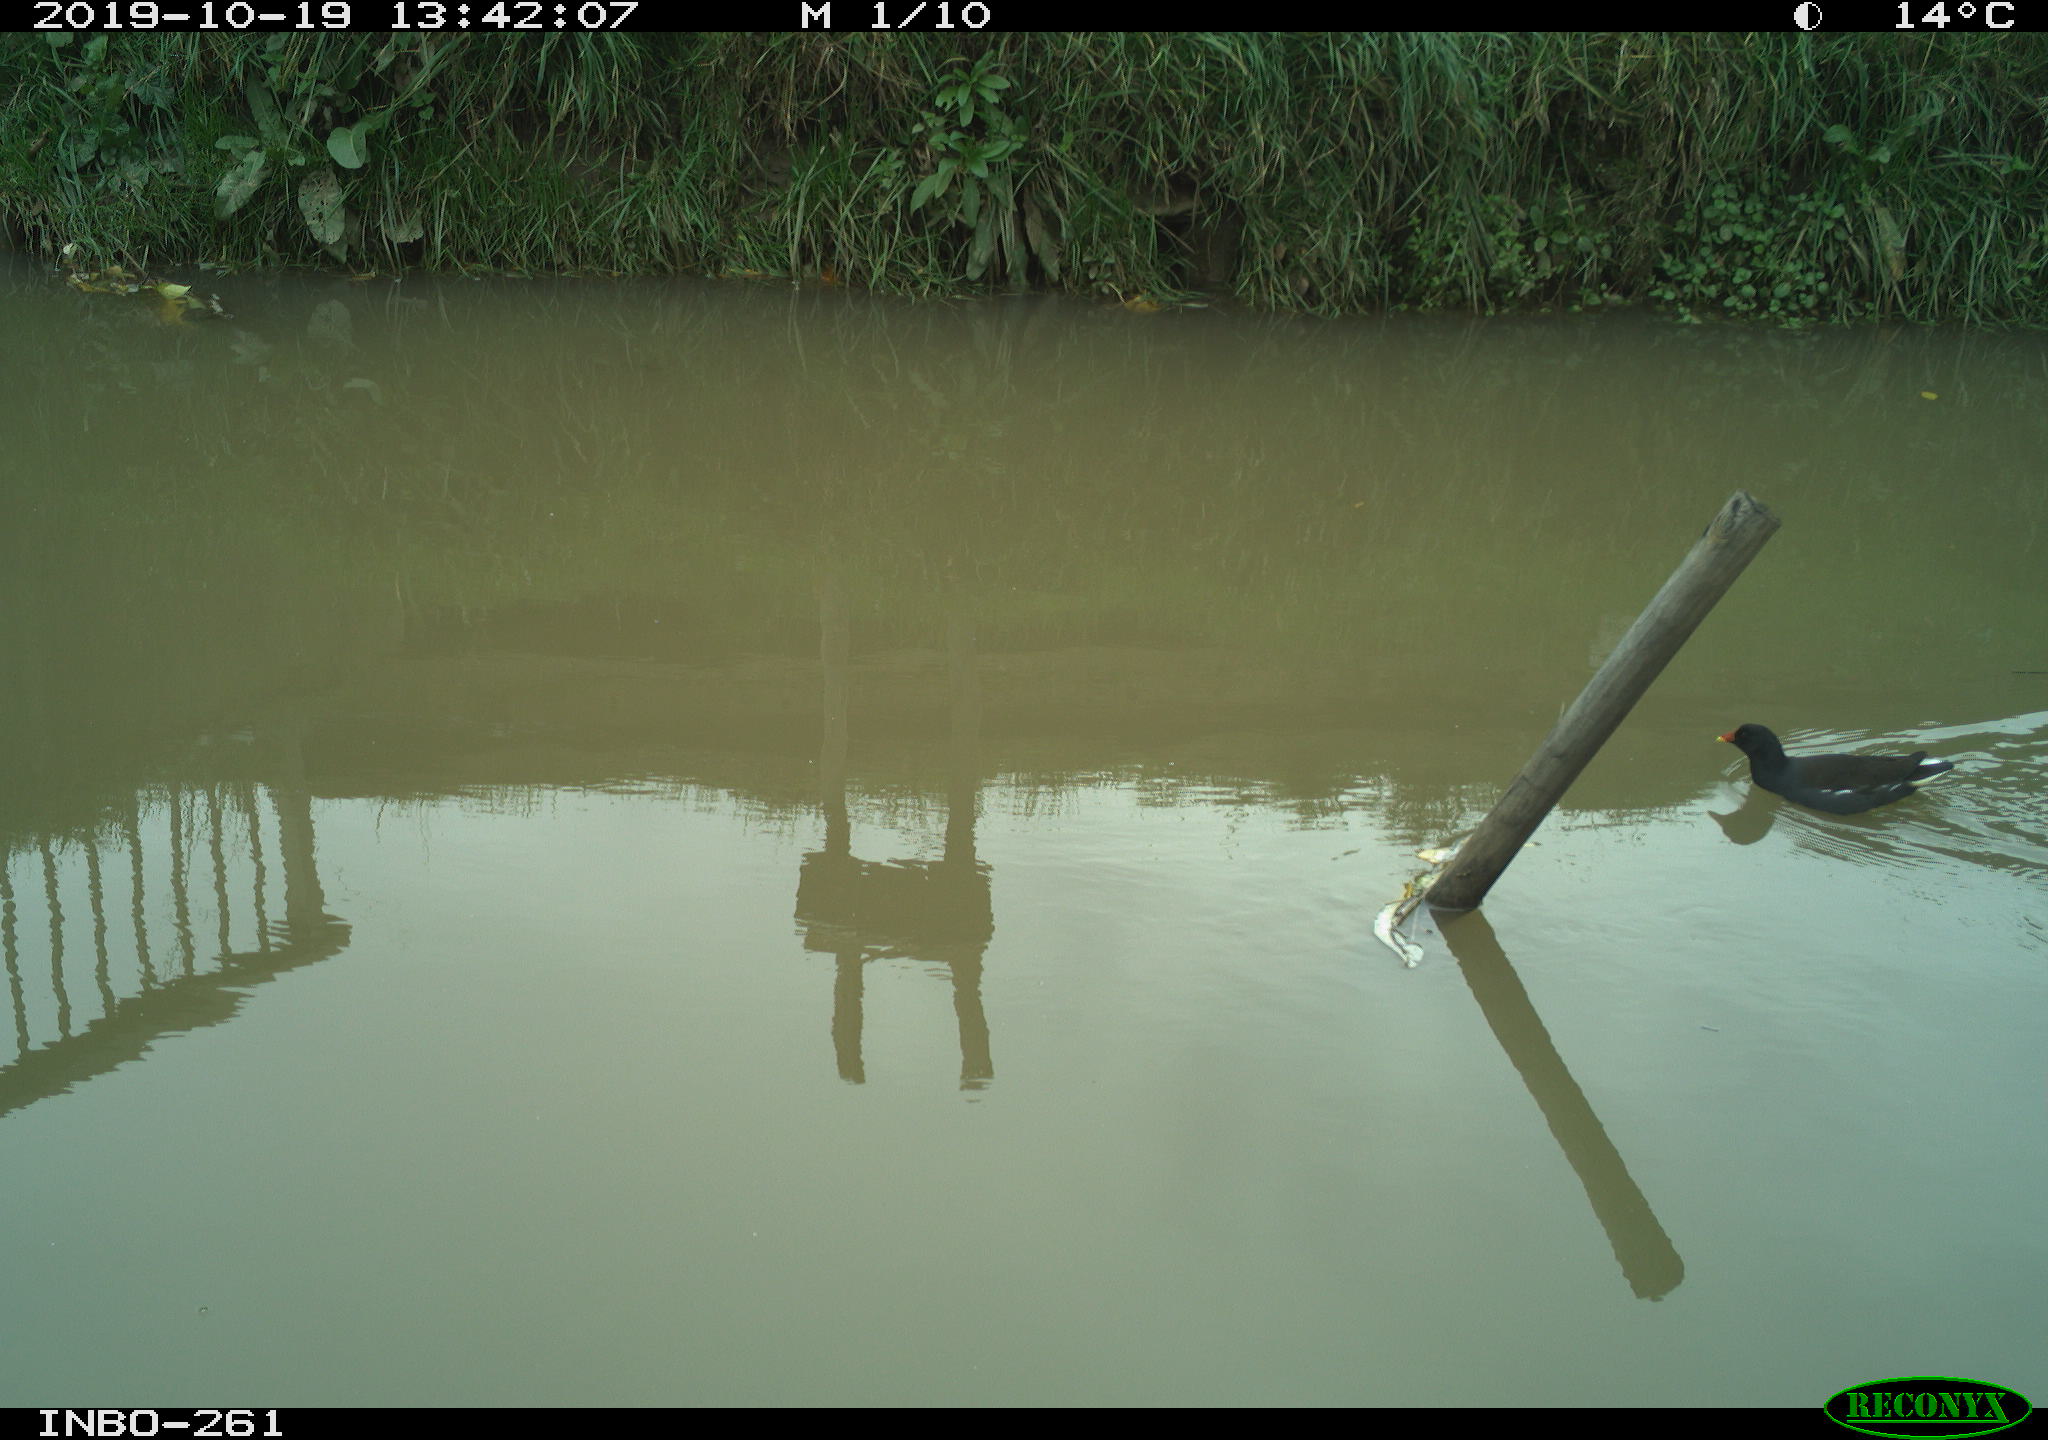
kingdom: Animalia
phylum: Chordata
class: Aves
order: Gruiformes
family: Rallidae
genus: Gallinula
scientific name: Gallinula chloropus
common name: Common moorhen
